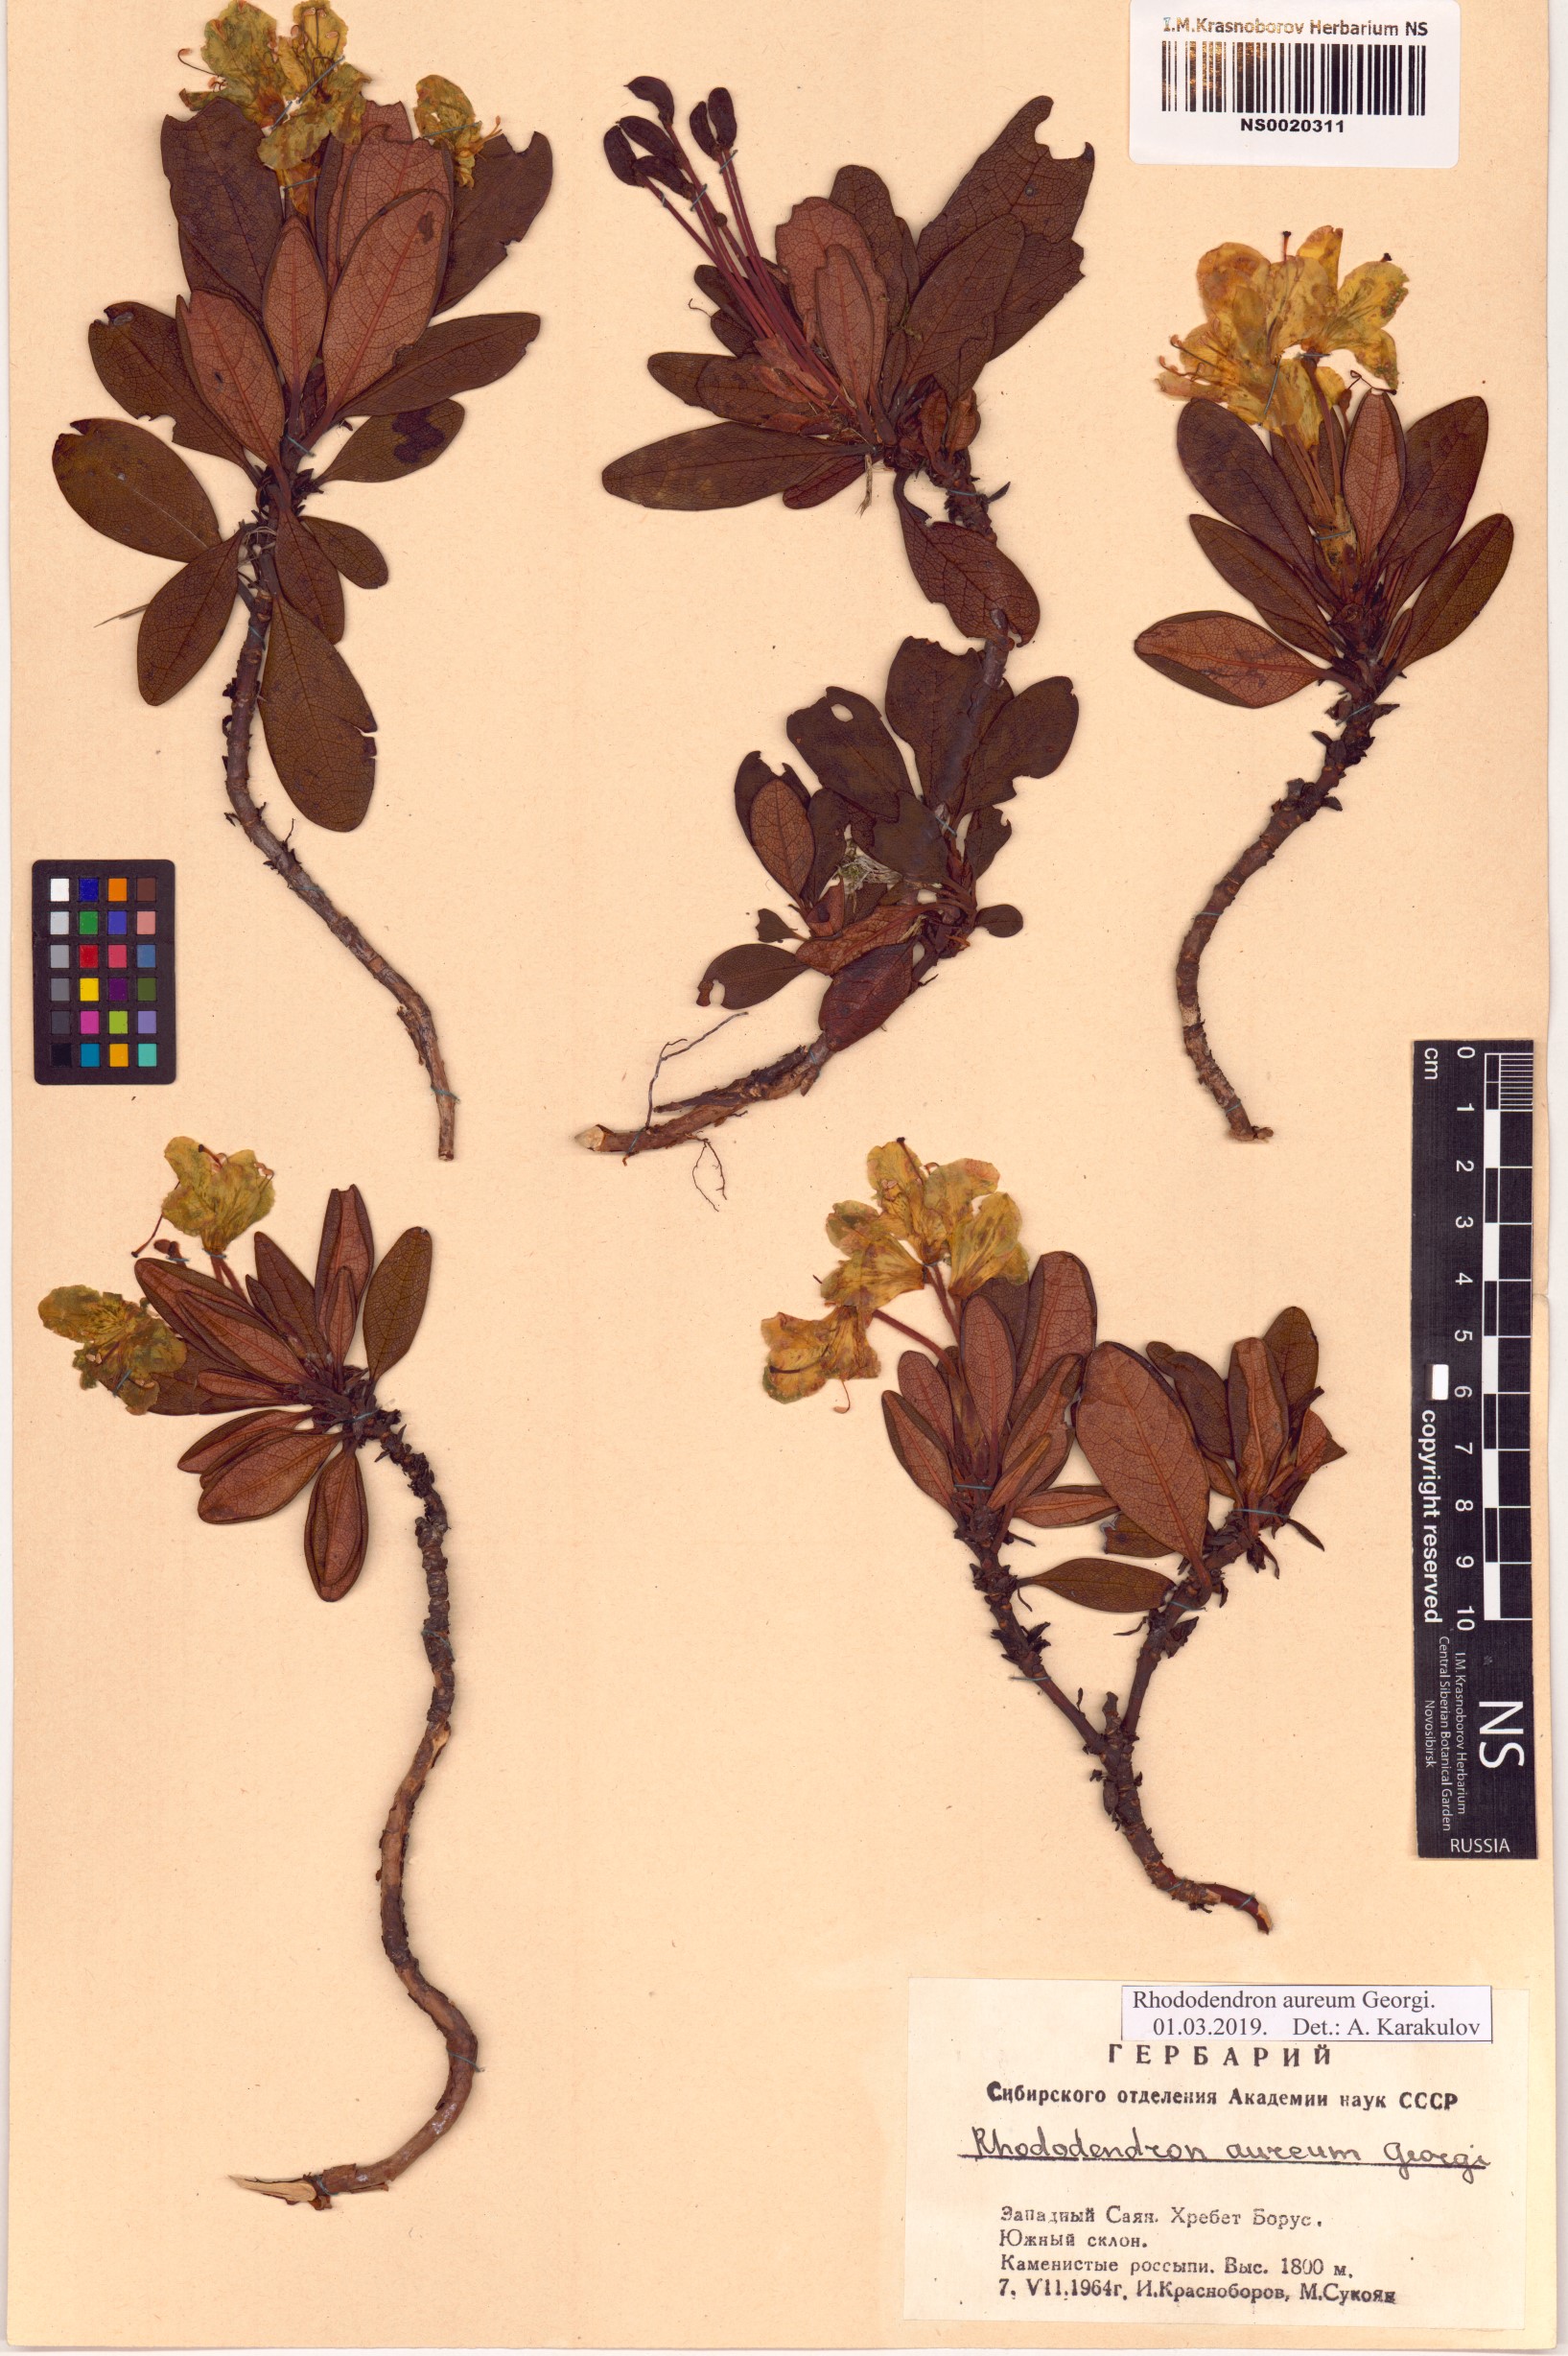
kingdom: Plantae
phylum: Tracheophyta
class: Magnoliopsida
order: Ericales
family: Ericaceae
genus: Rhododendron
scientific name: Rhododendron aureum
